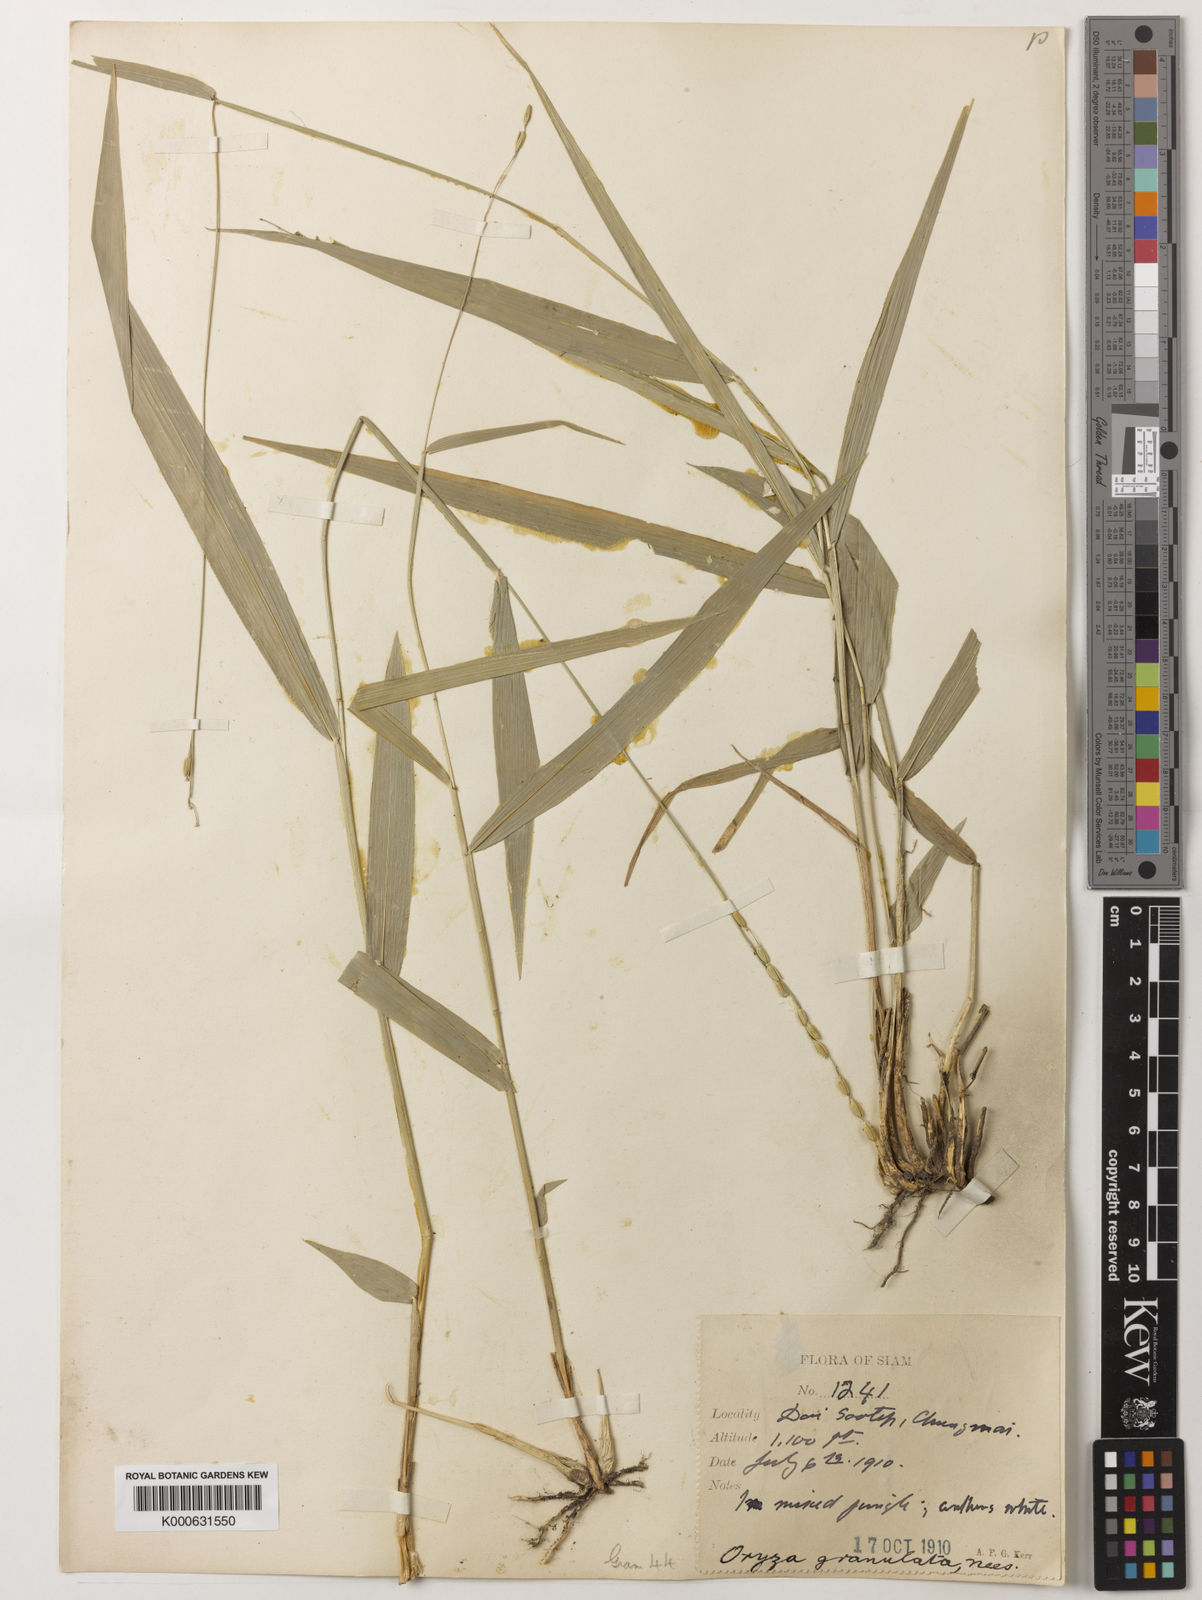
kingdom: Plantae
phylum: Tracheophyta
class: Liliopsida
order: Poales
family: Poaceae
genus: Oryza
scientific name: Oryza meyeriana
